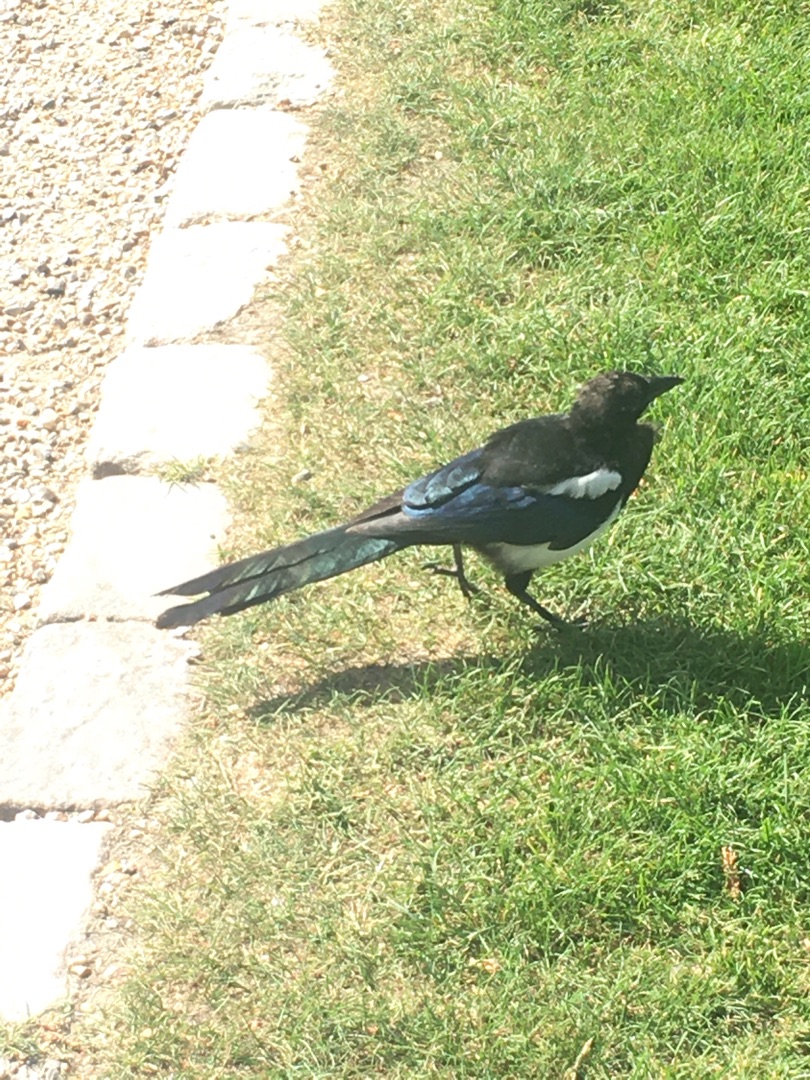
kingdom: Animalia
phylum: Chordata
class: Aves
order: Passeriformes
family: Corvidae
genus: Pica
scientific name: Pica pica
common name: Husskade
